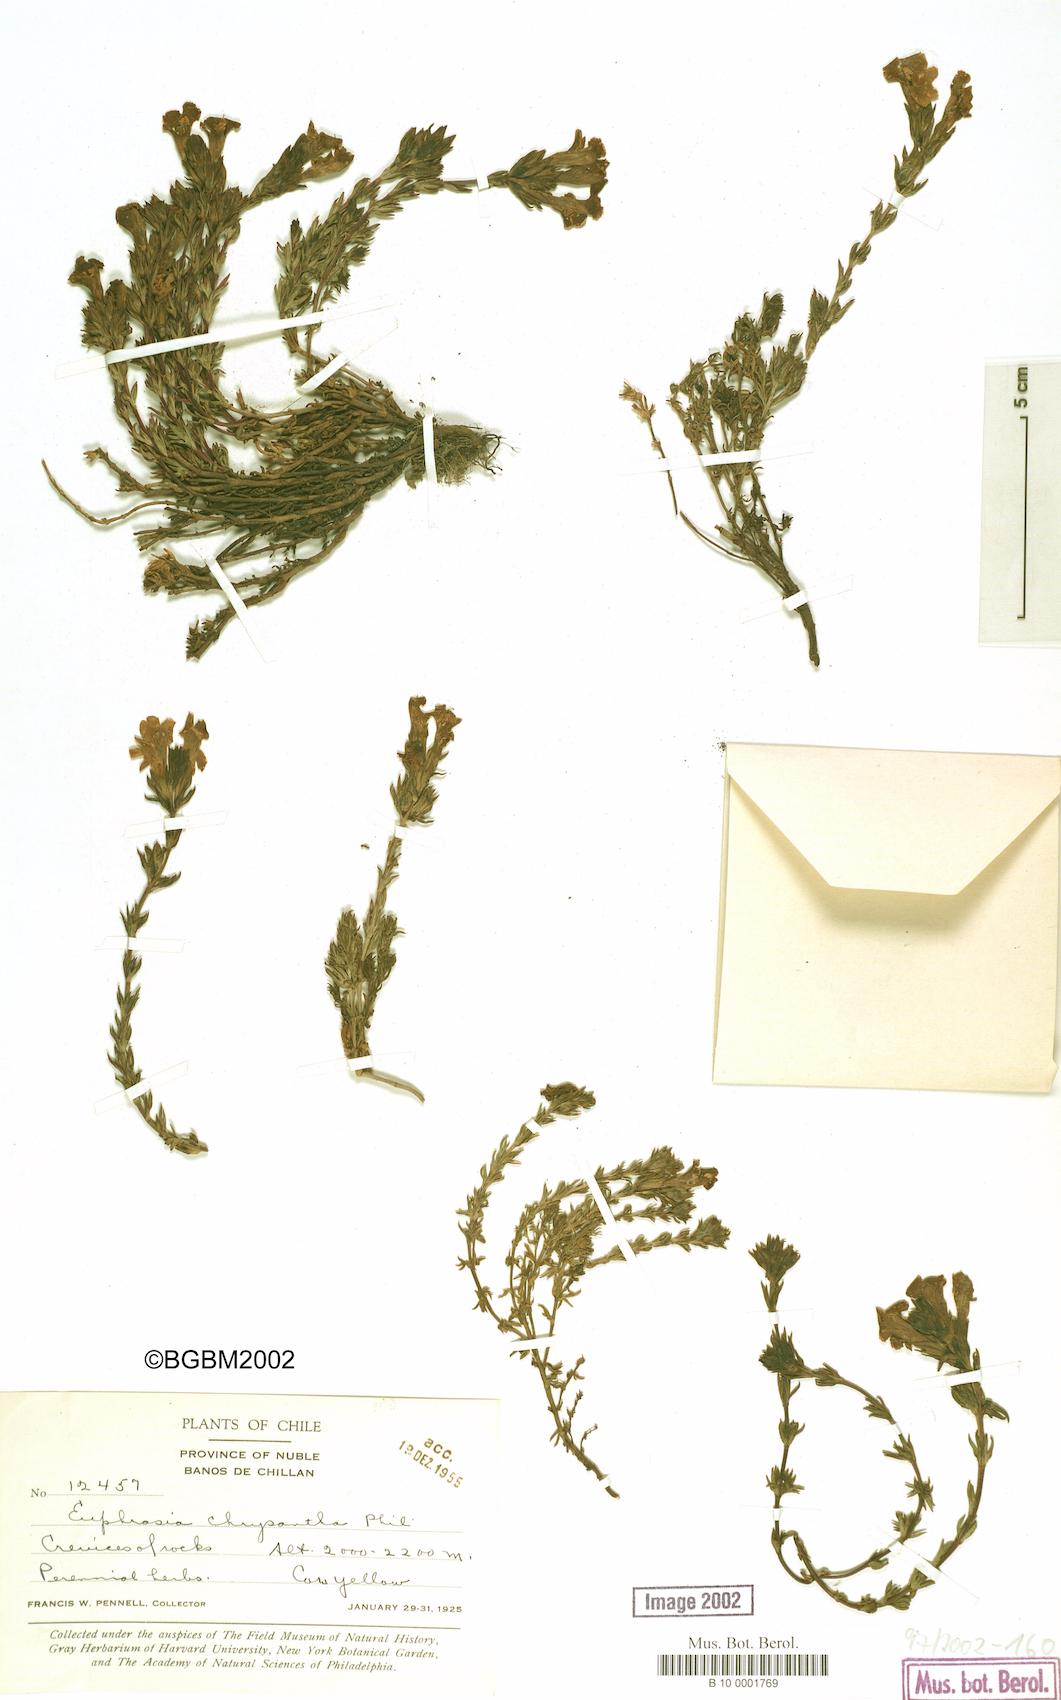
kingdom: Plantae
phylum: Tracheophyta
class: Magnoliopsida
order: Lamiales
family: Orobanchaceae
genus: Euphrasia
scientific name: Euphrasia chrysantha
